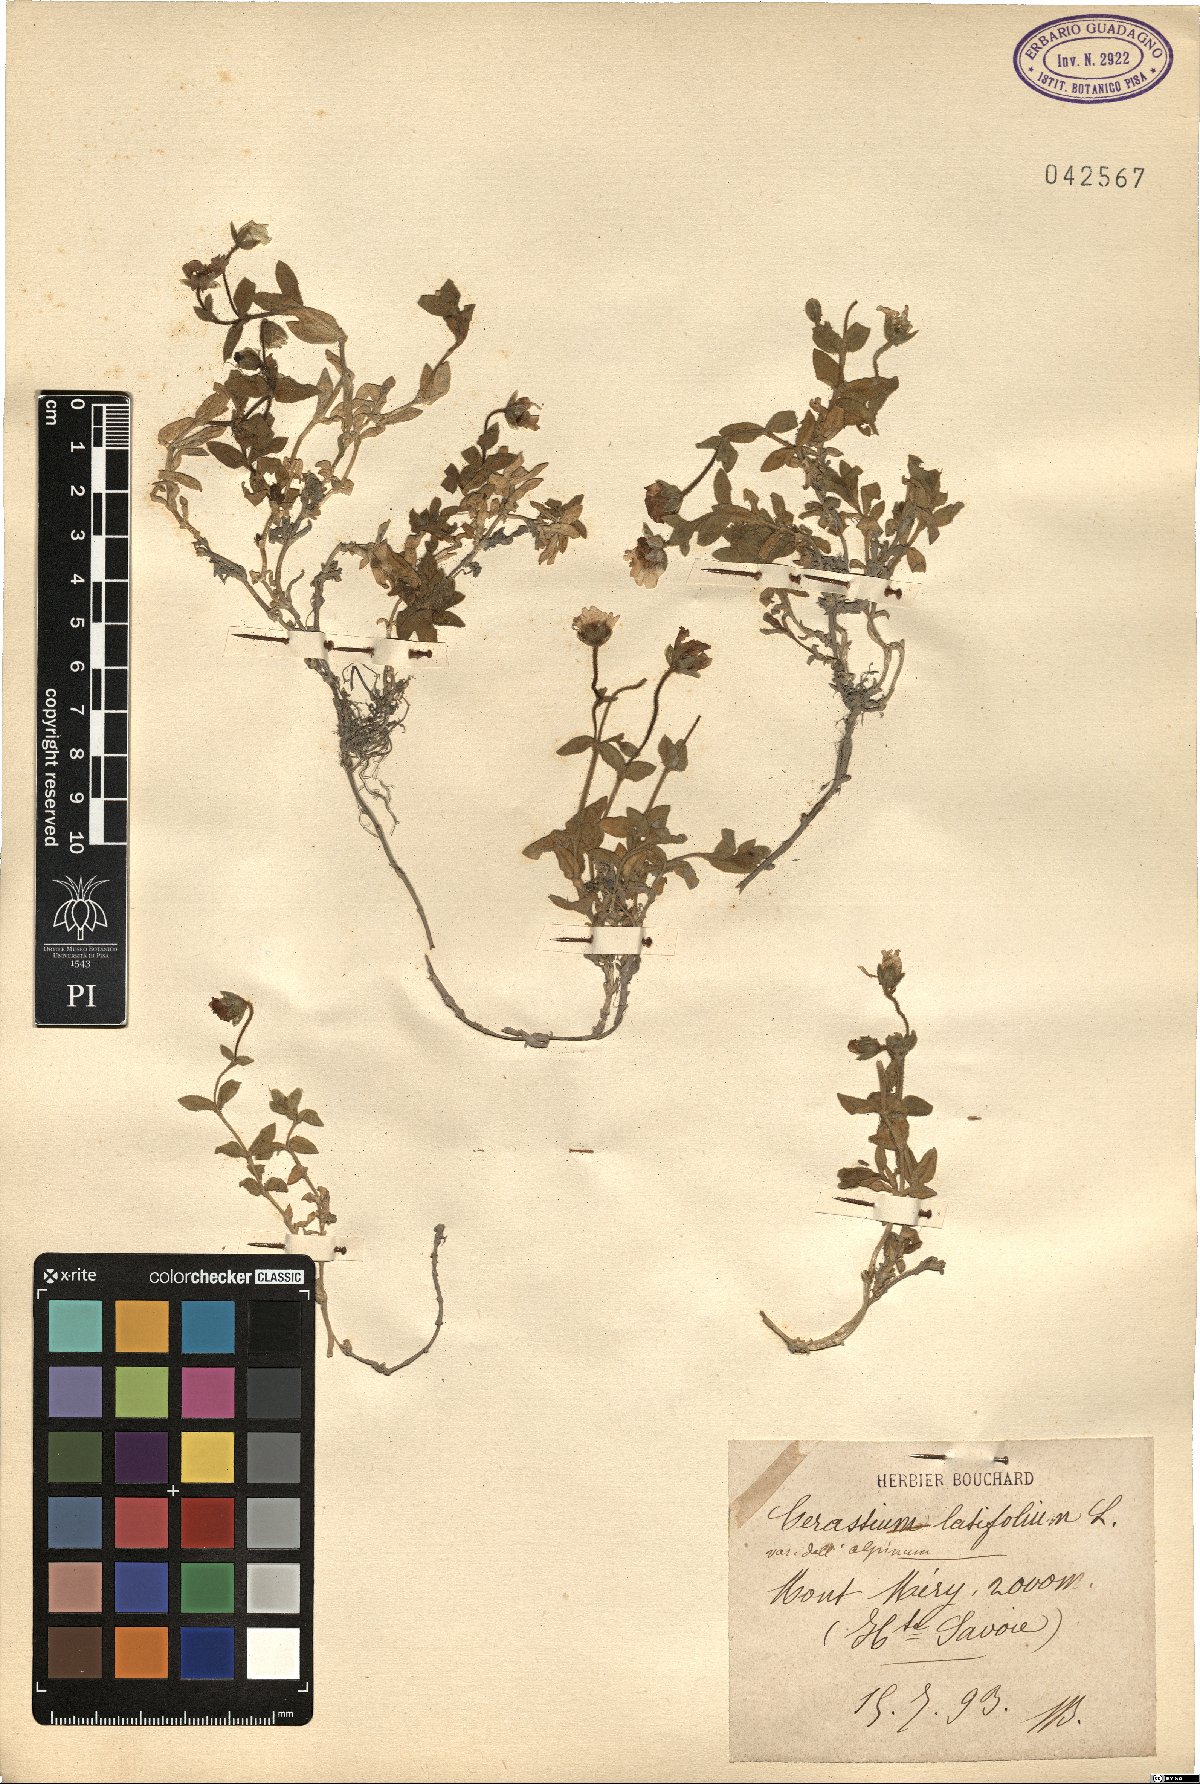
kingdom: Plantae
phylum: Tracheophyta
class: Magnoliopsida
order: Caryophyllales
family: Caryophyllaceae
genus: Cerastium
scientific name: Cerastium latifolium
